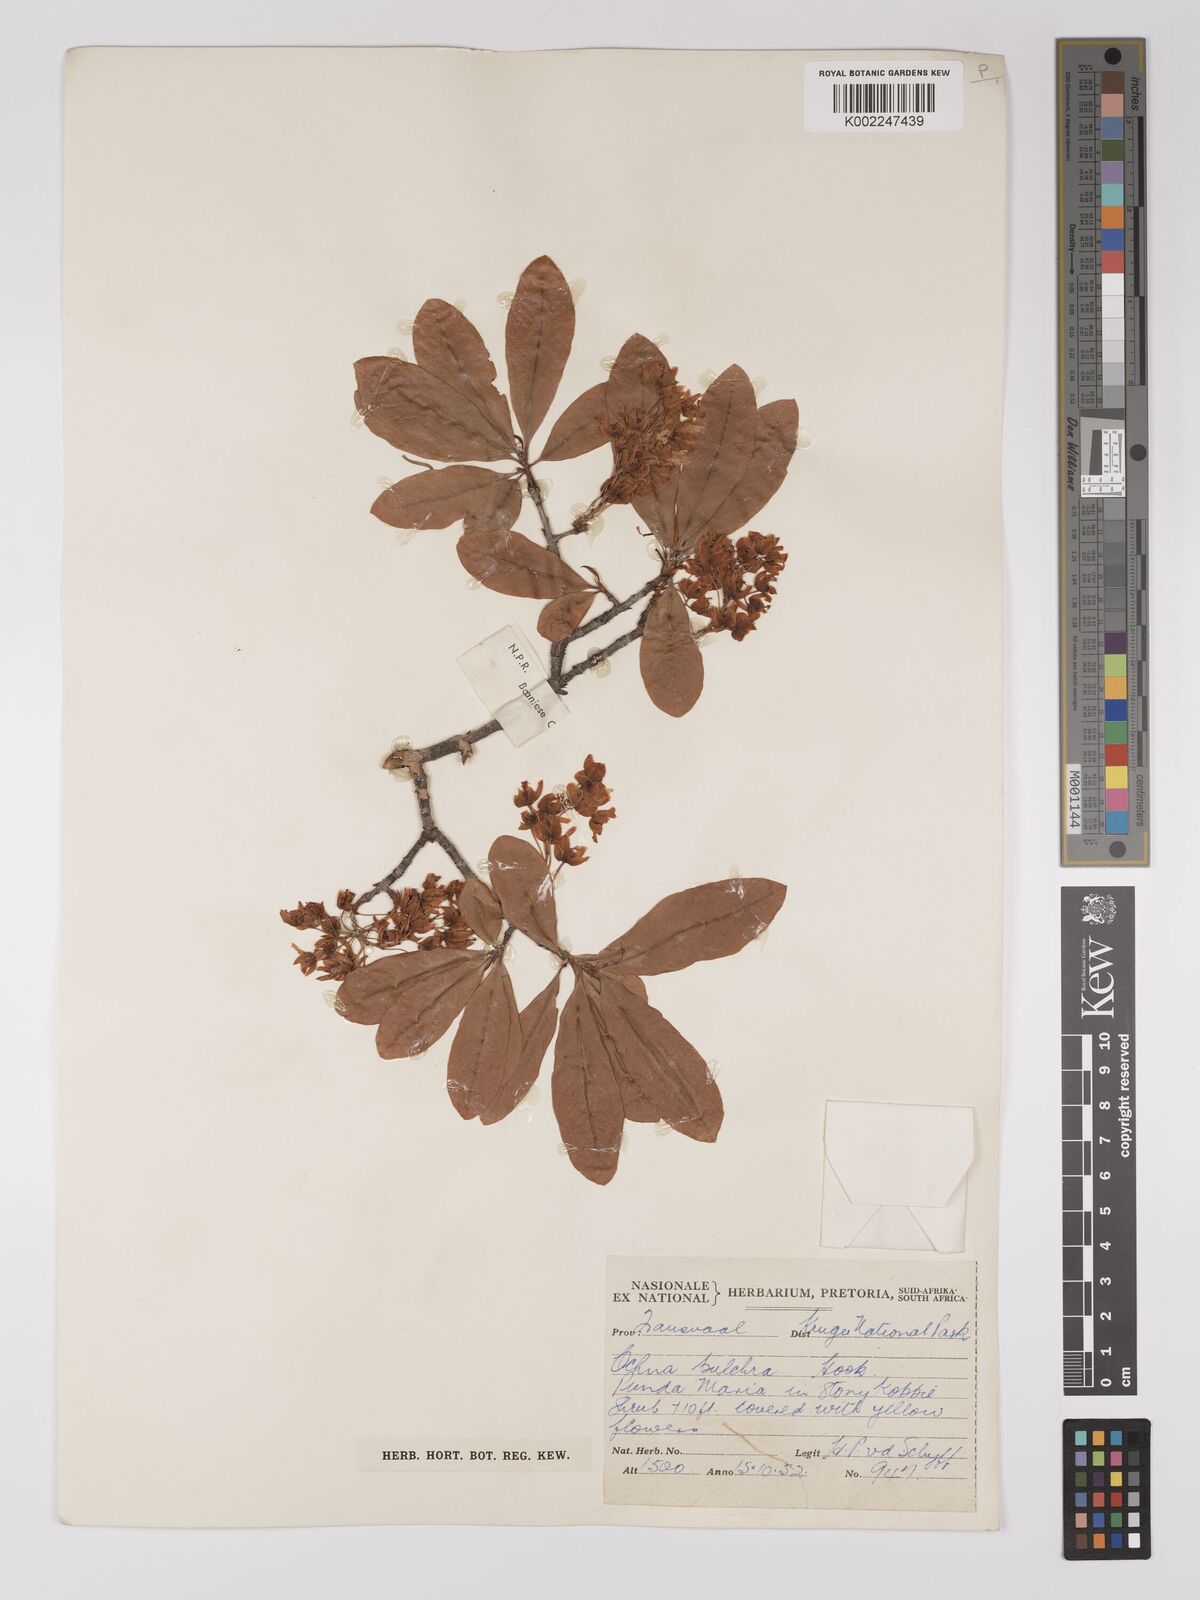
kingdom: Plantae
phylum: Tracheophyta
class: Magnoliopsida
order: Malpighiales
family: Ochnaceae
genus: Ochna
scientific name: Ochna pulchra
